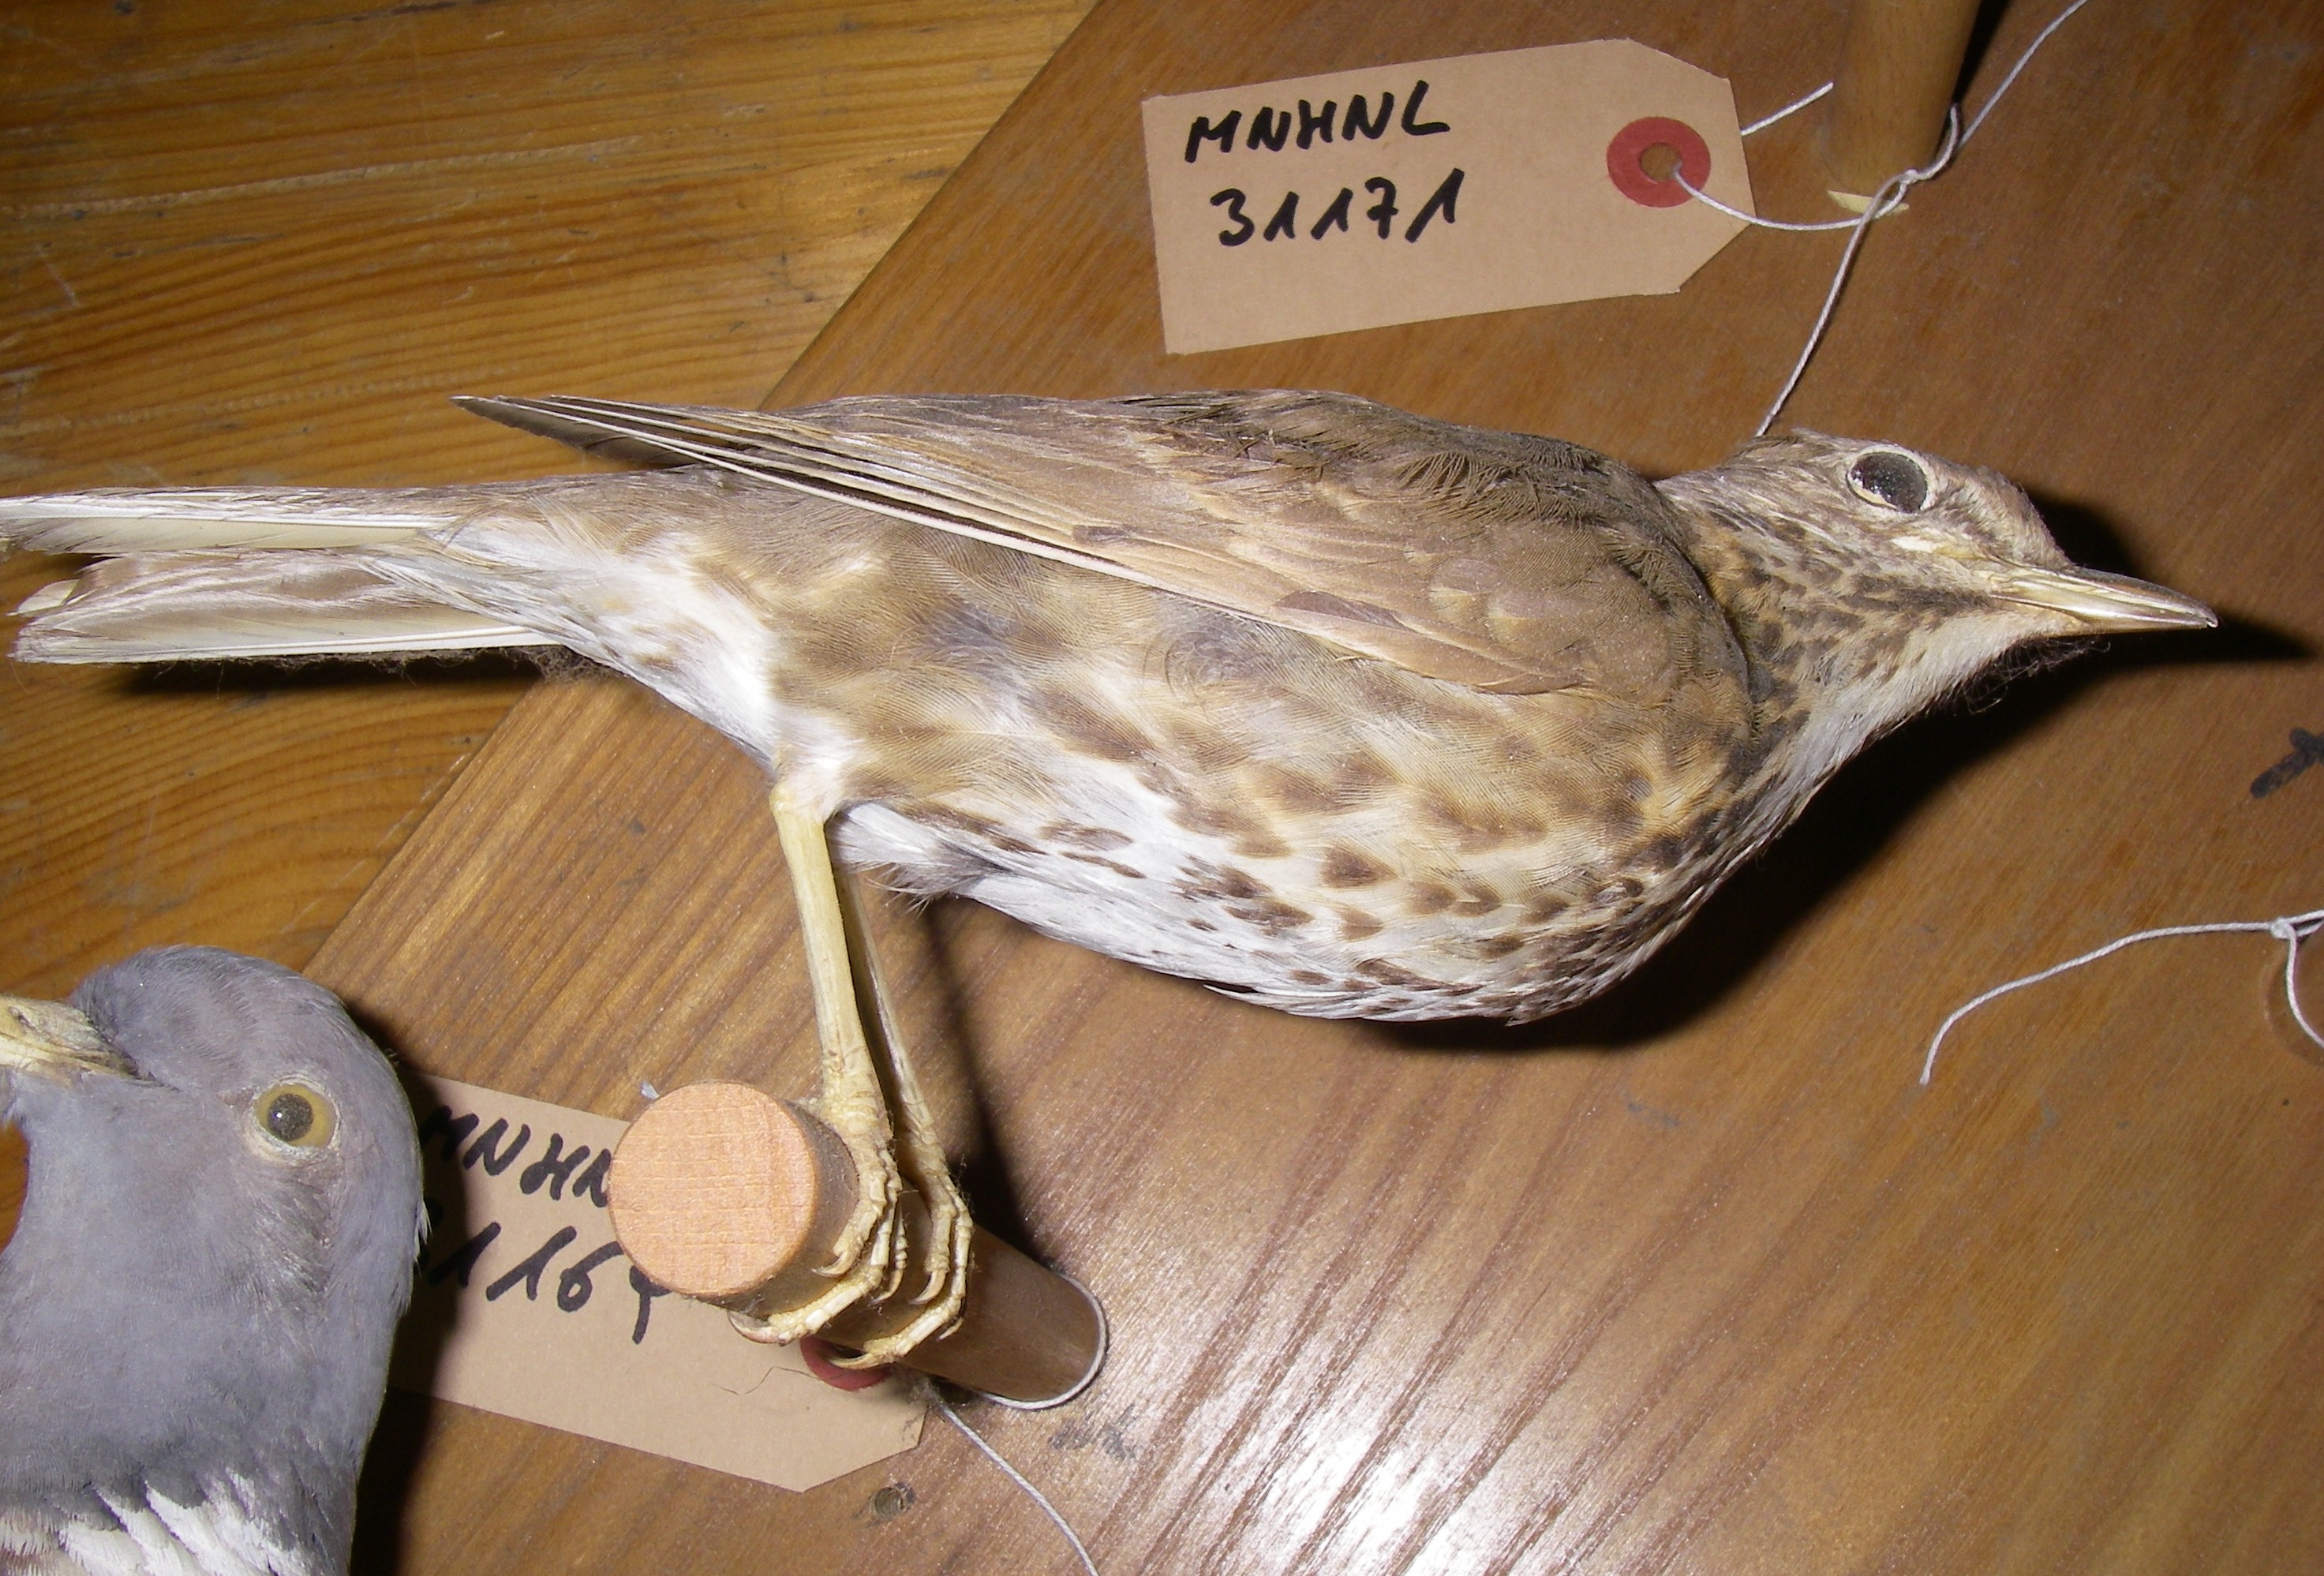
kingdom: Animalia
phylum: Chordata
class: Aves
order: Passeriformes
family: Turdidae
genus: Turdus
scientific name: Turdus philomelos
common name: Song thrush
